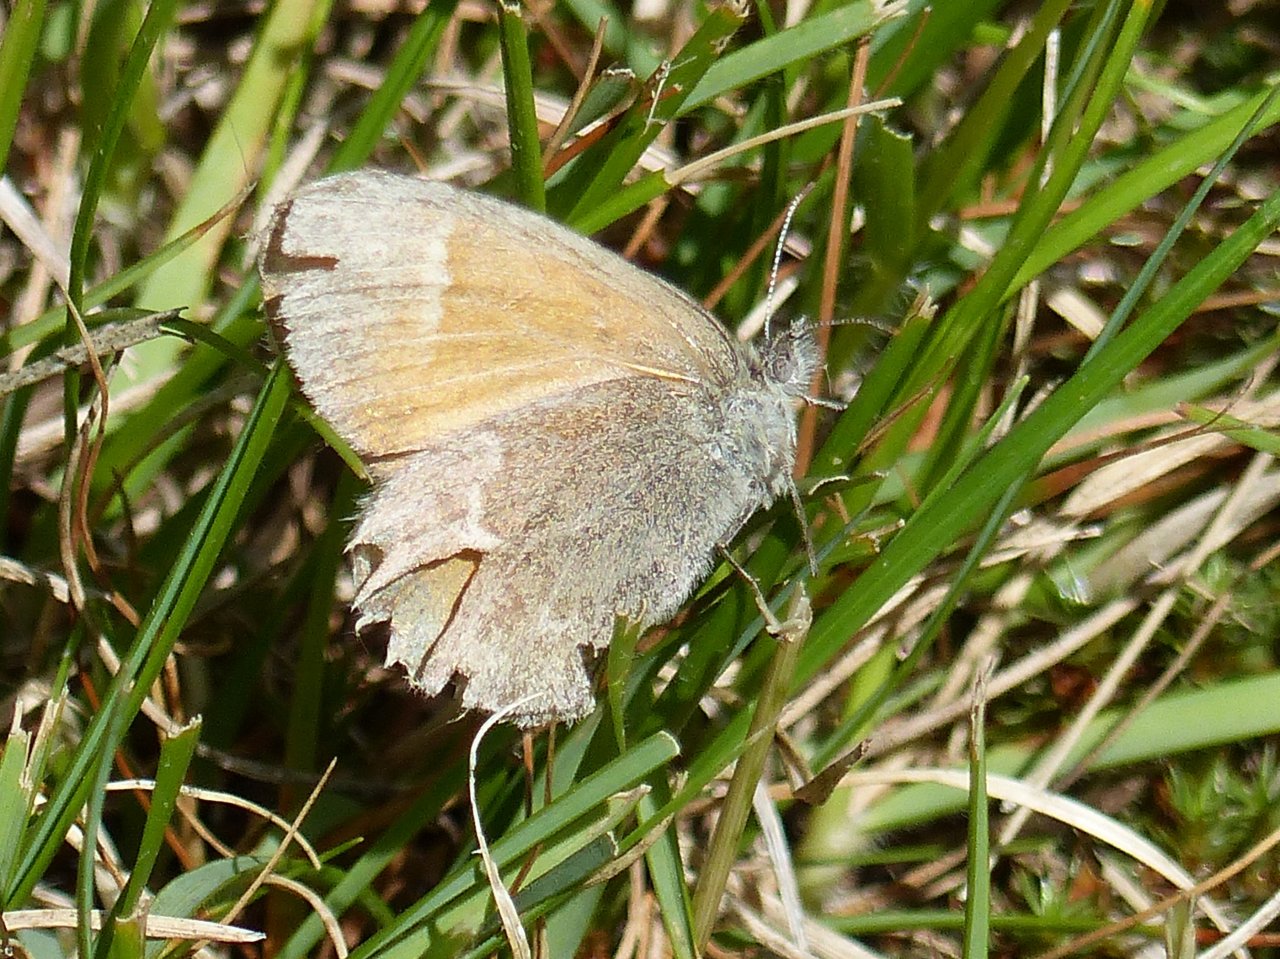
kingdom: Animalia
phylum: Arthropoda
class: Insecta
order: Lepidoptera
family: Nymphalidae
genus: Coenonympha
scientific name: Coenonympha
